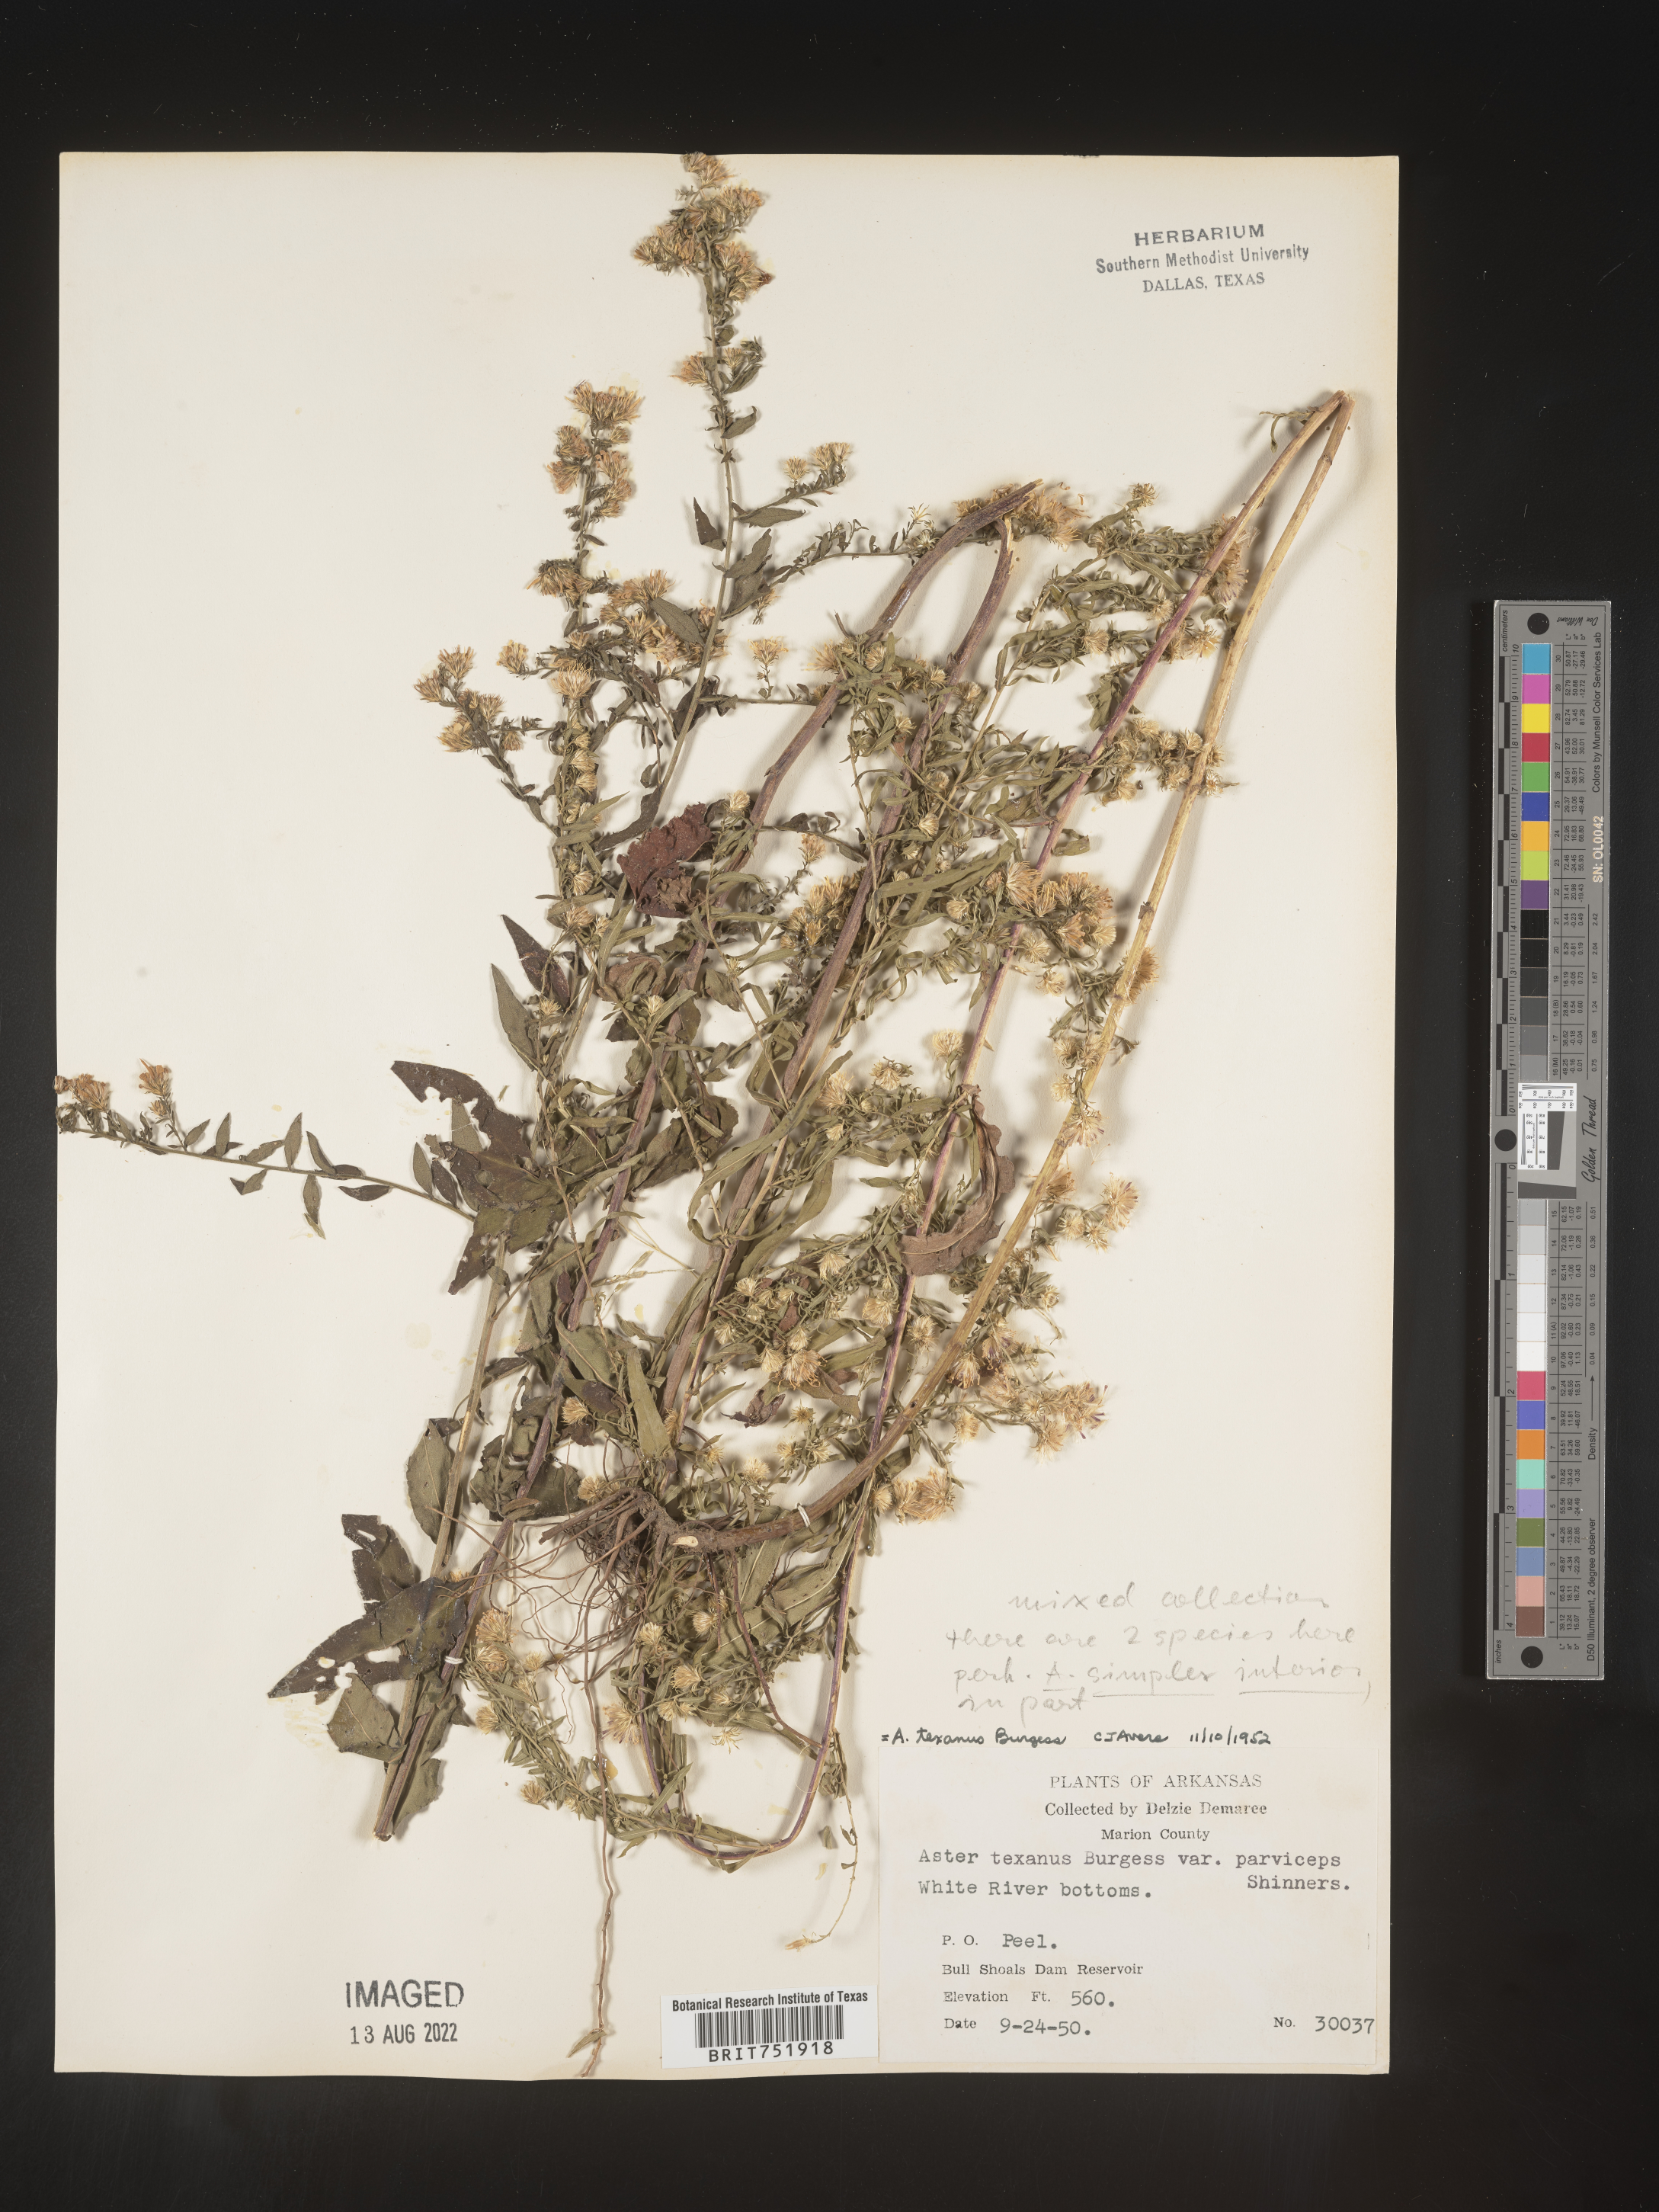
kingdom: Plantae
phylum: Tracheophyta
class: Magnoliopsida
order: Asterales
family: Asteraceae
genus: Symphyotrichum
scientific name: Symphyotrichum drummondii
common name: Drummond's aster
